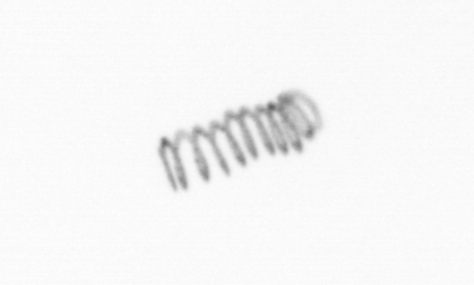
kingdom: Chromista
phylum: Ochrophyta
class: Bacillariophyceae
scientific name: Bacillariophyceae
